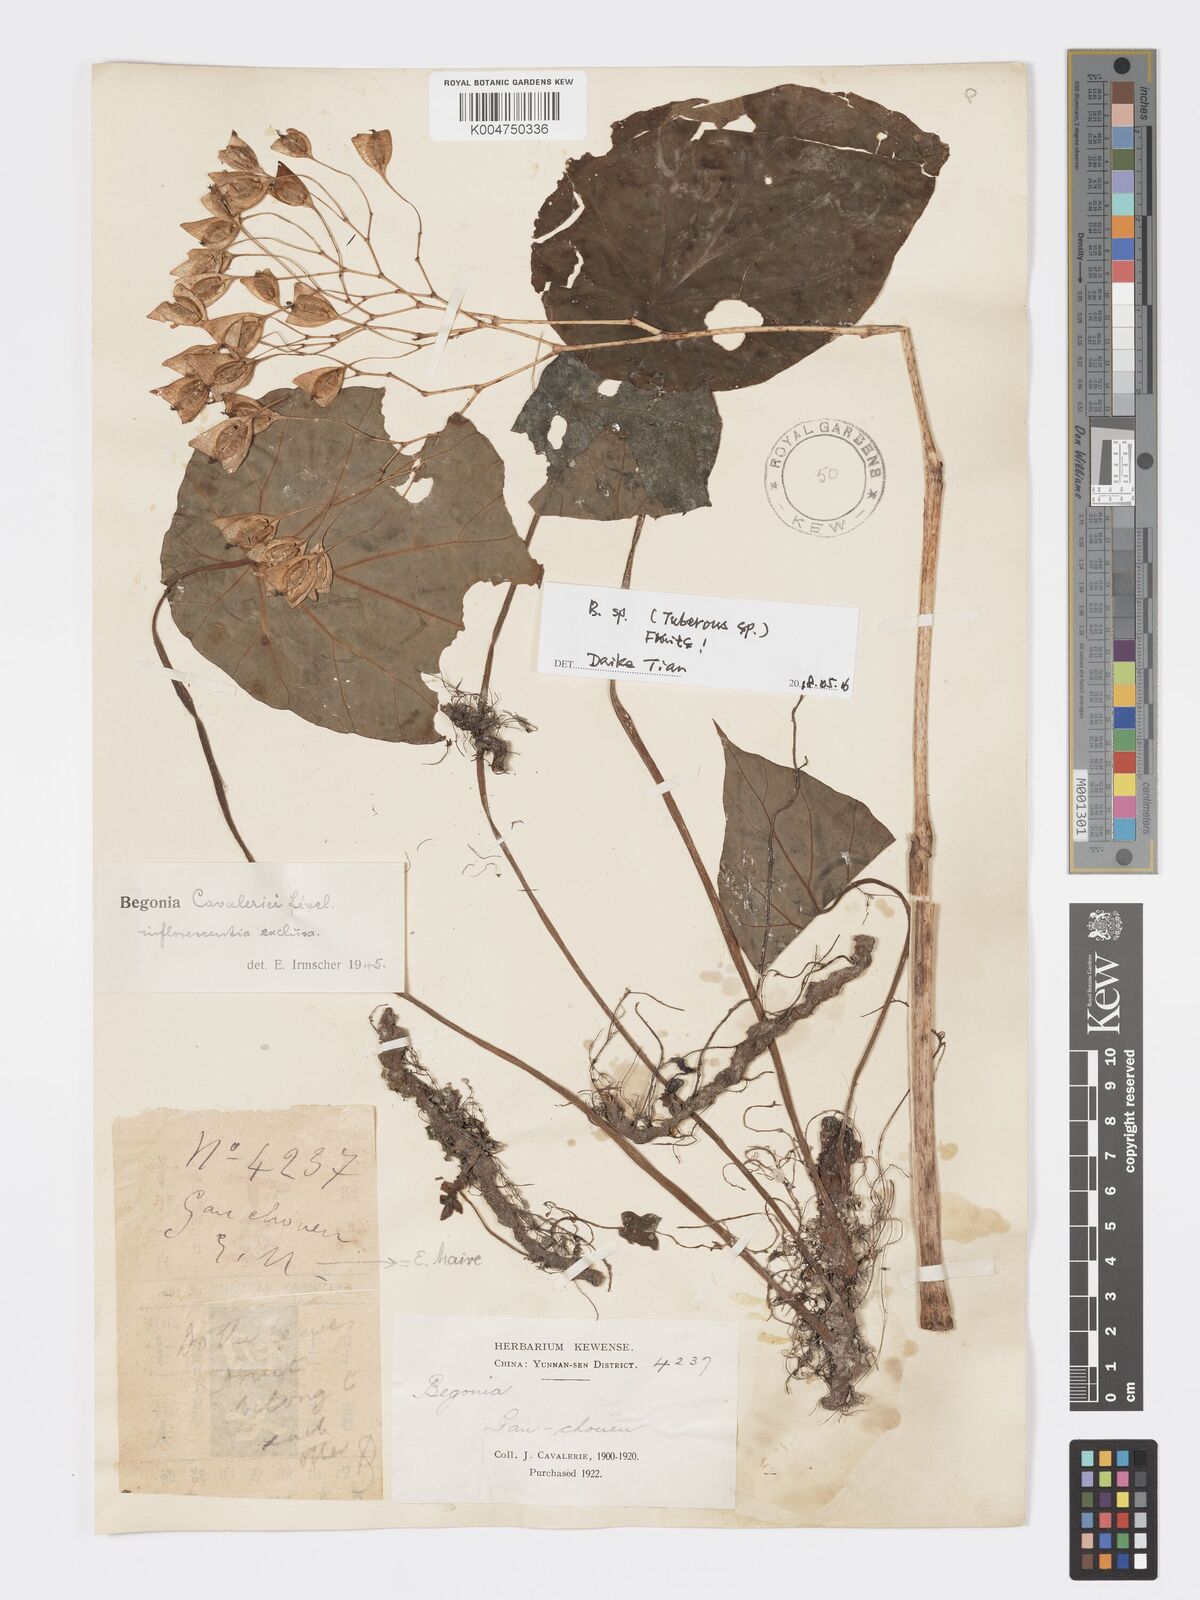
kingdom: Plantae
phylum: Tracheophyta
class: Magnoliopsida
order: Cucurbitales
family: Begoniaceae
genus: Begonia
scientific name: Begonia cavaleriei
